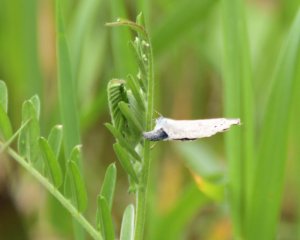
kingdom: Animalia
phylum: Arthropoda
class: Insecta
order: Lepidoptera
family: Lycaenidae
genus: Glaucopsyche
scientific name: Glaucopsyche lygdamus
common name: Silvery Blue
